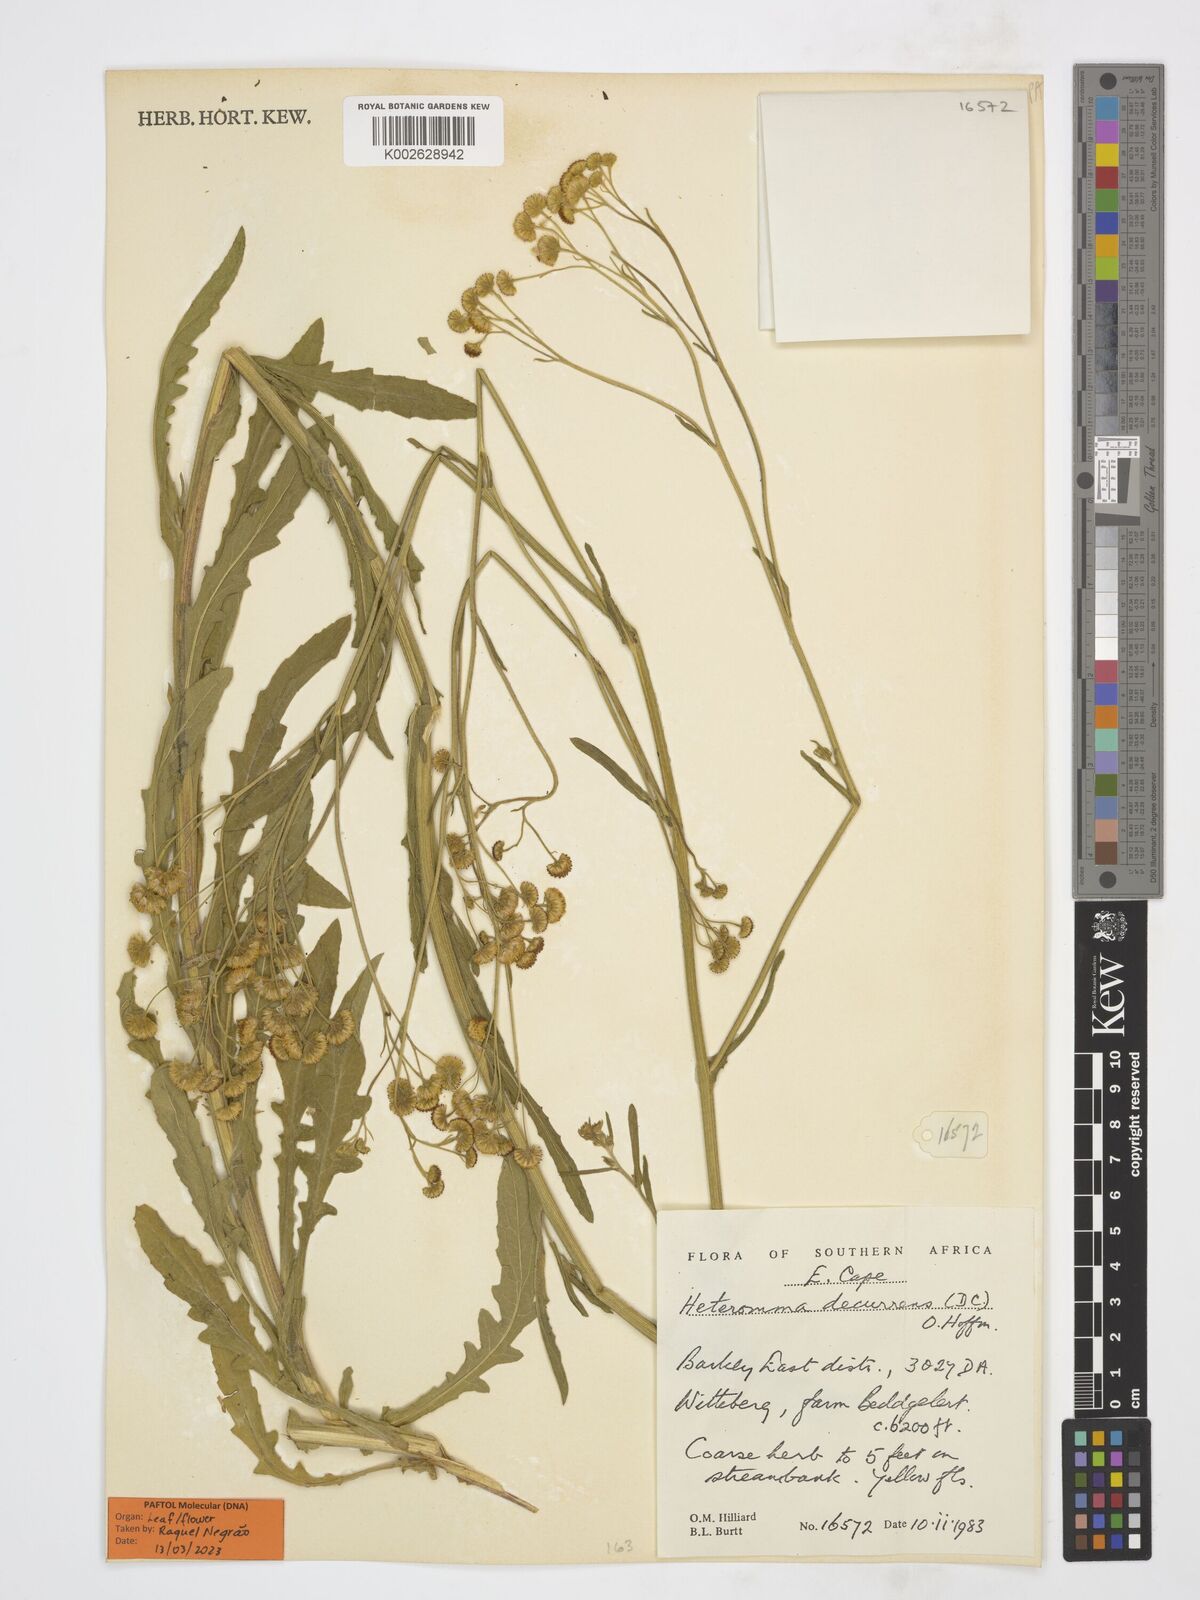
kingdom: Plantae
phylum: Tracheophyta
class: Magnoliopsida
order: Asterales
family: Asteraceae
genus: Heteromma
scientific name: Heteromma decurrens
